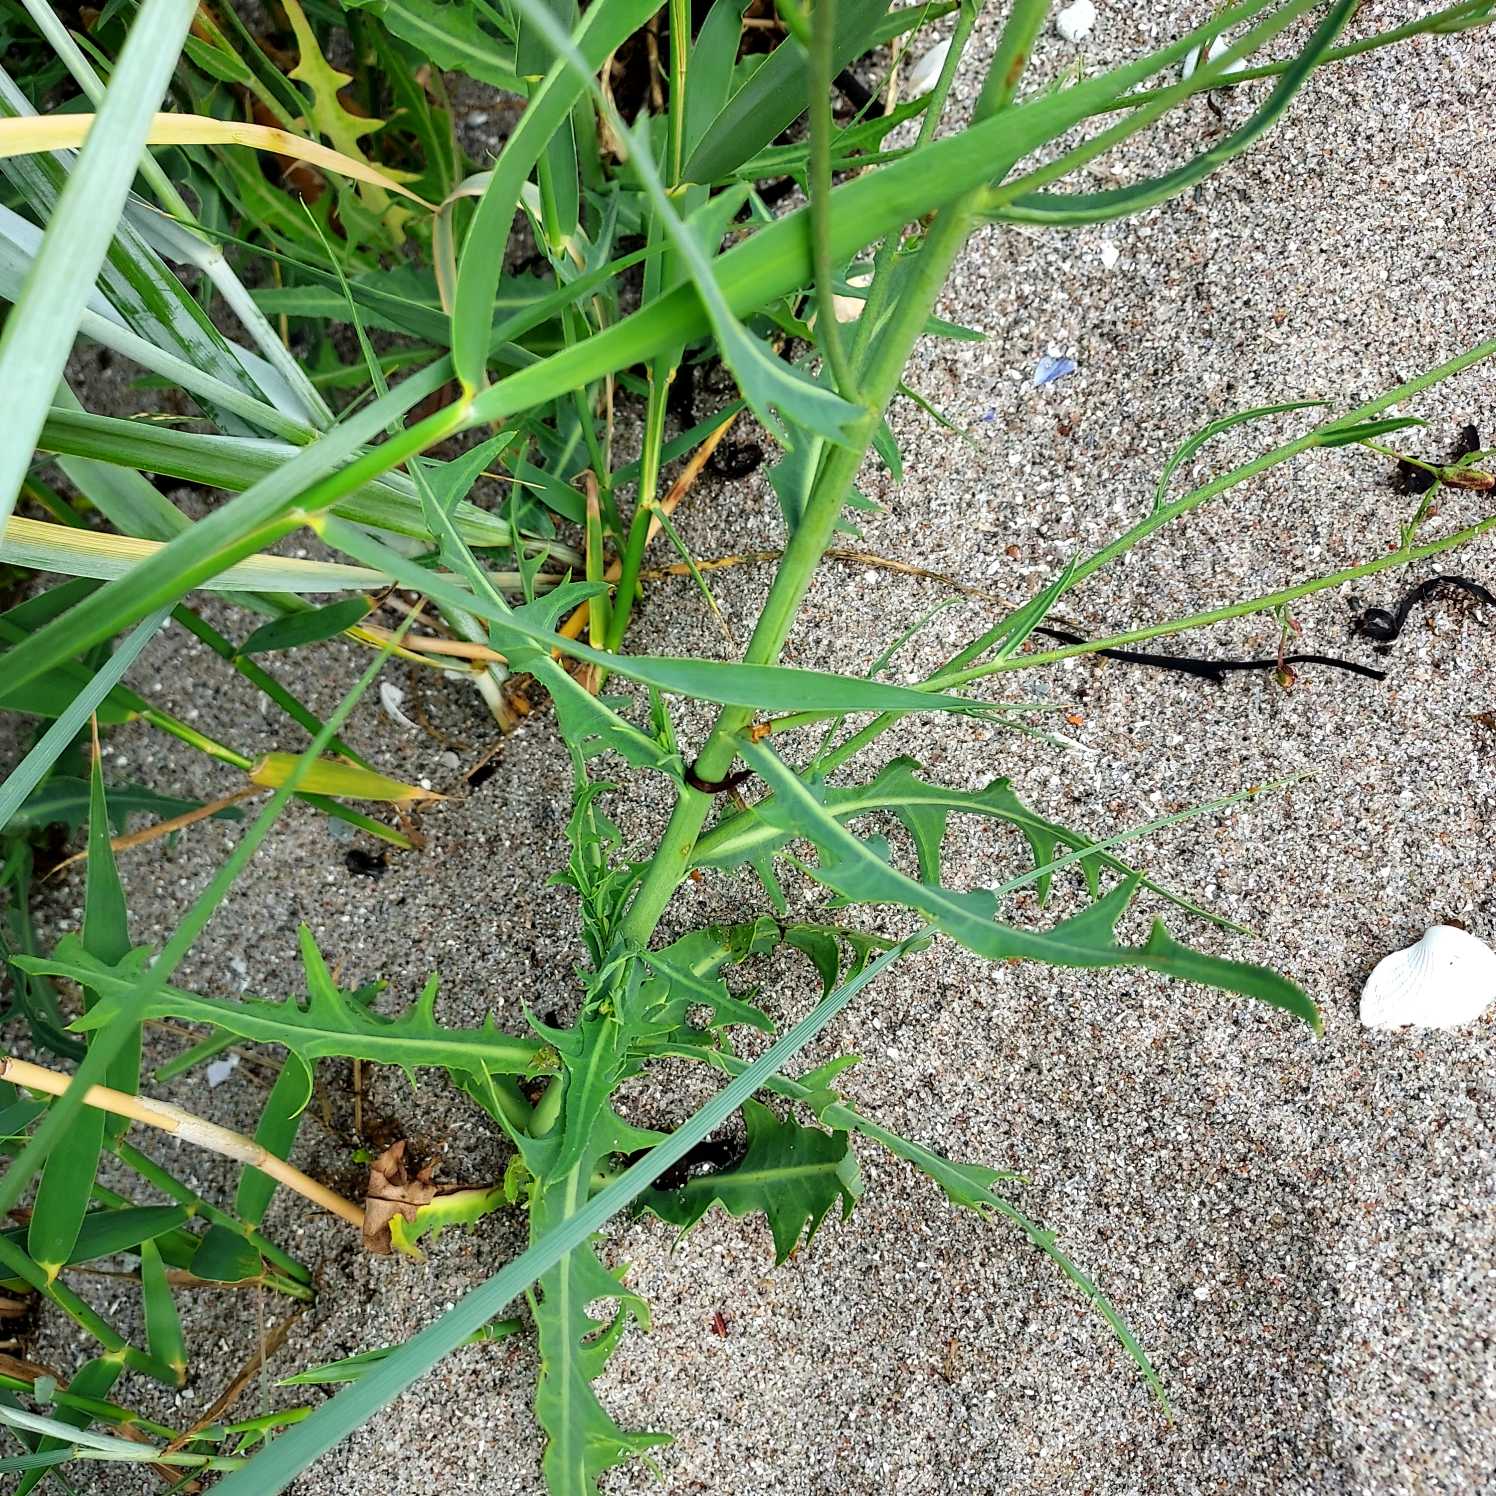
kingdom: Plantae
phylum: Tracheophyta
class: Magnoliopsida
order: Asterales
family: Asteraceae
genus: Lactuca
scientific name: Lactuca tatarica
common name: Strand-salat
